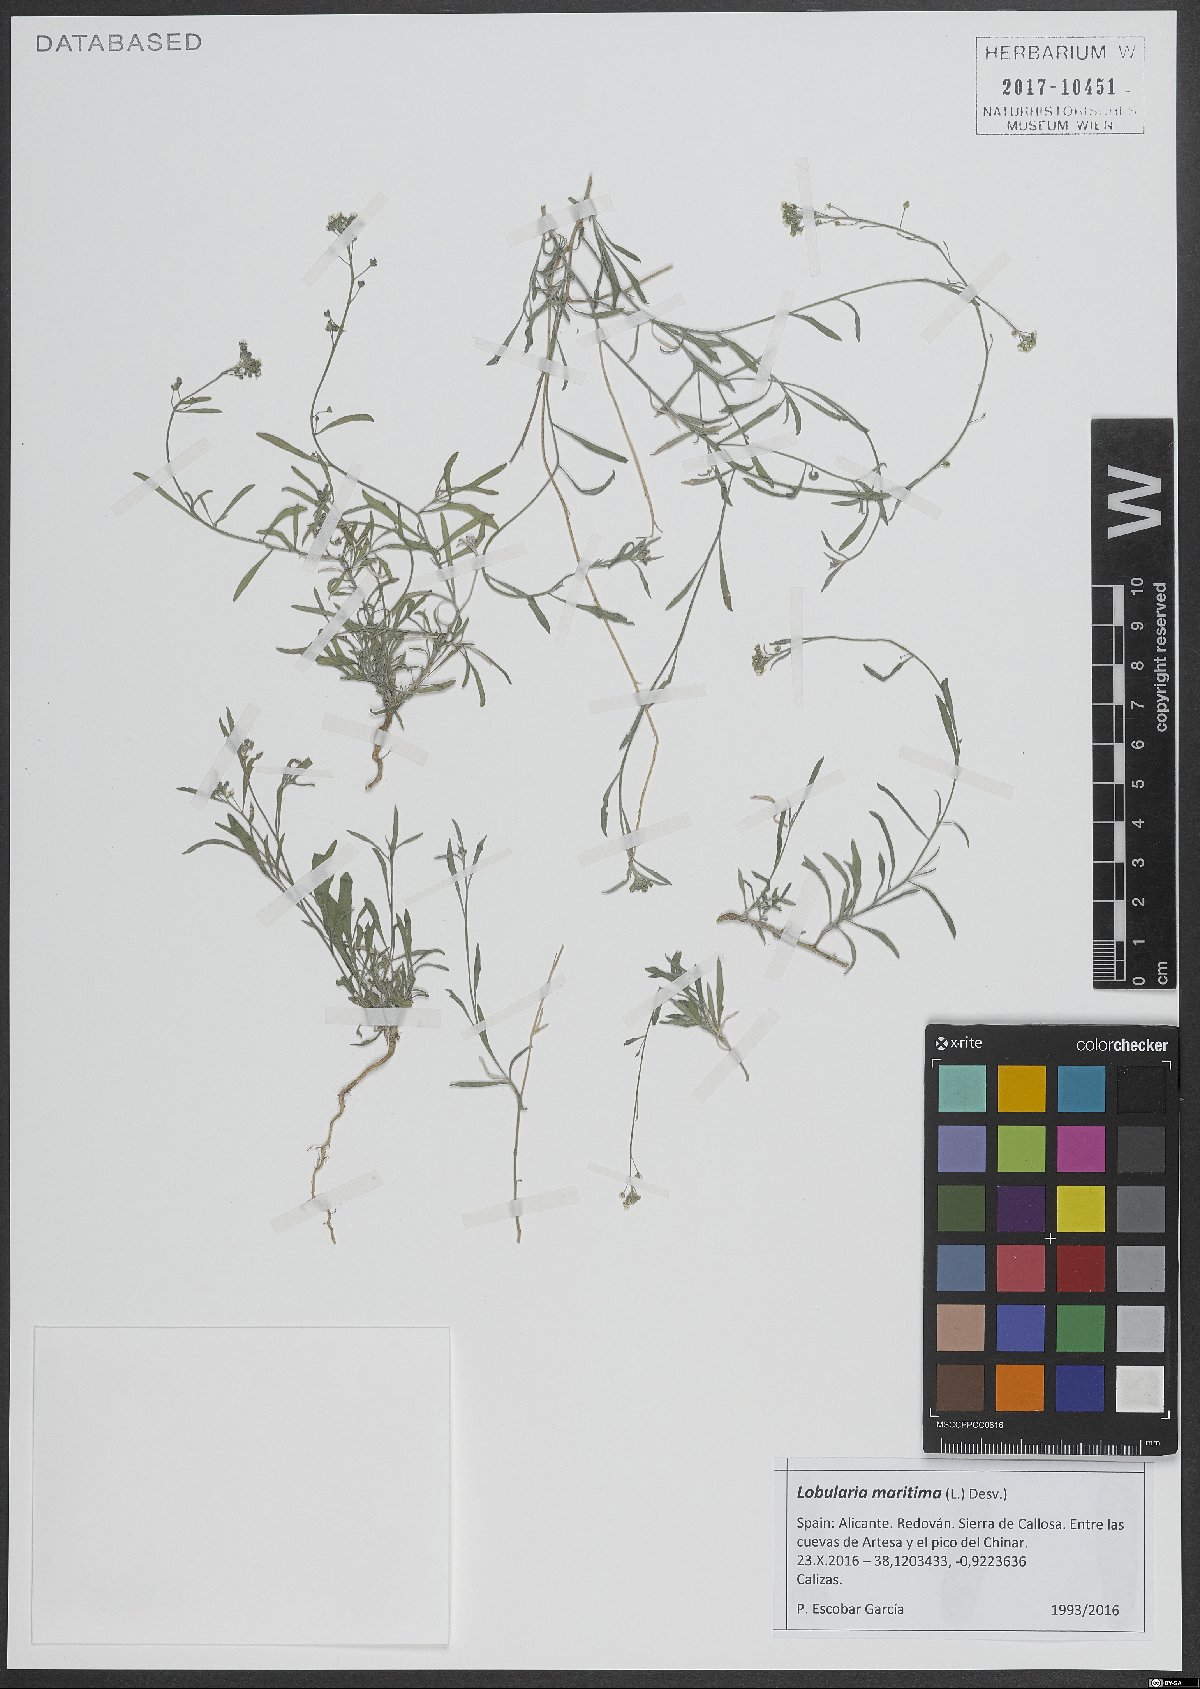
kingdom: Plantae
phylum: Tracheophyta
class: Magnoliopsida
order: Brassicales
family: Brassicaceae
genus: Lobularia
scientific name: Lobularia maritima
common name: Sweet alison
